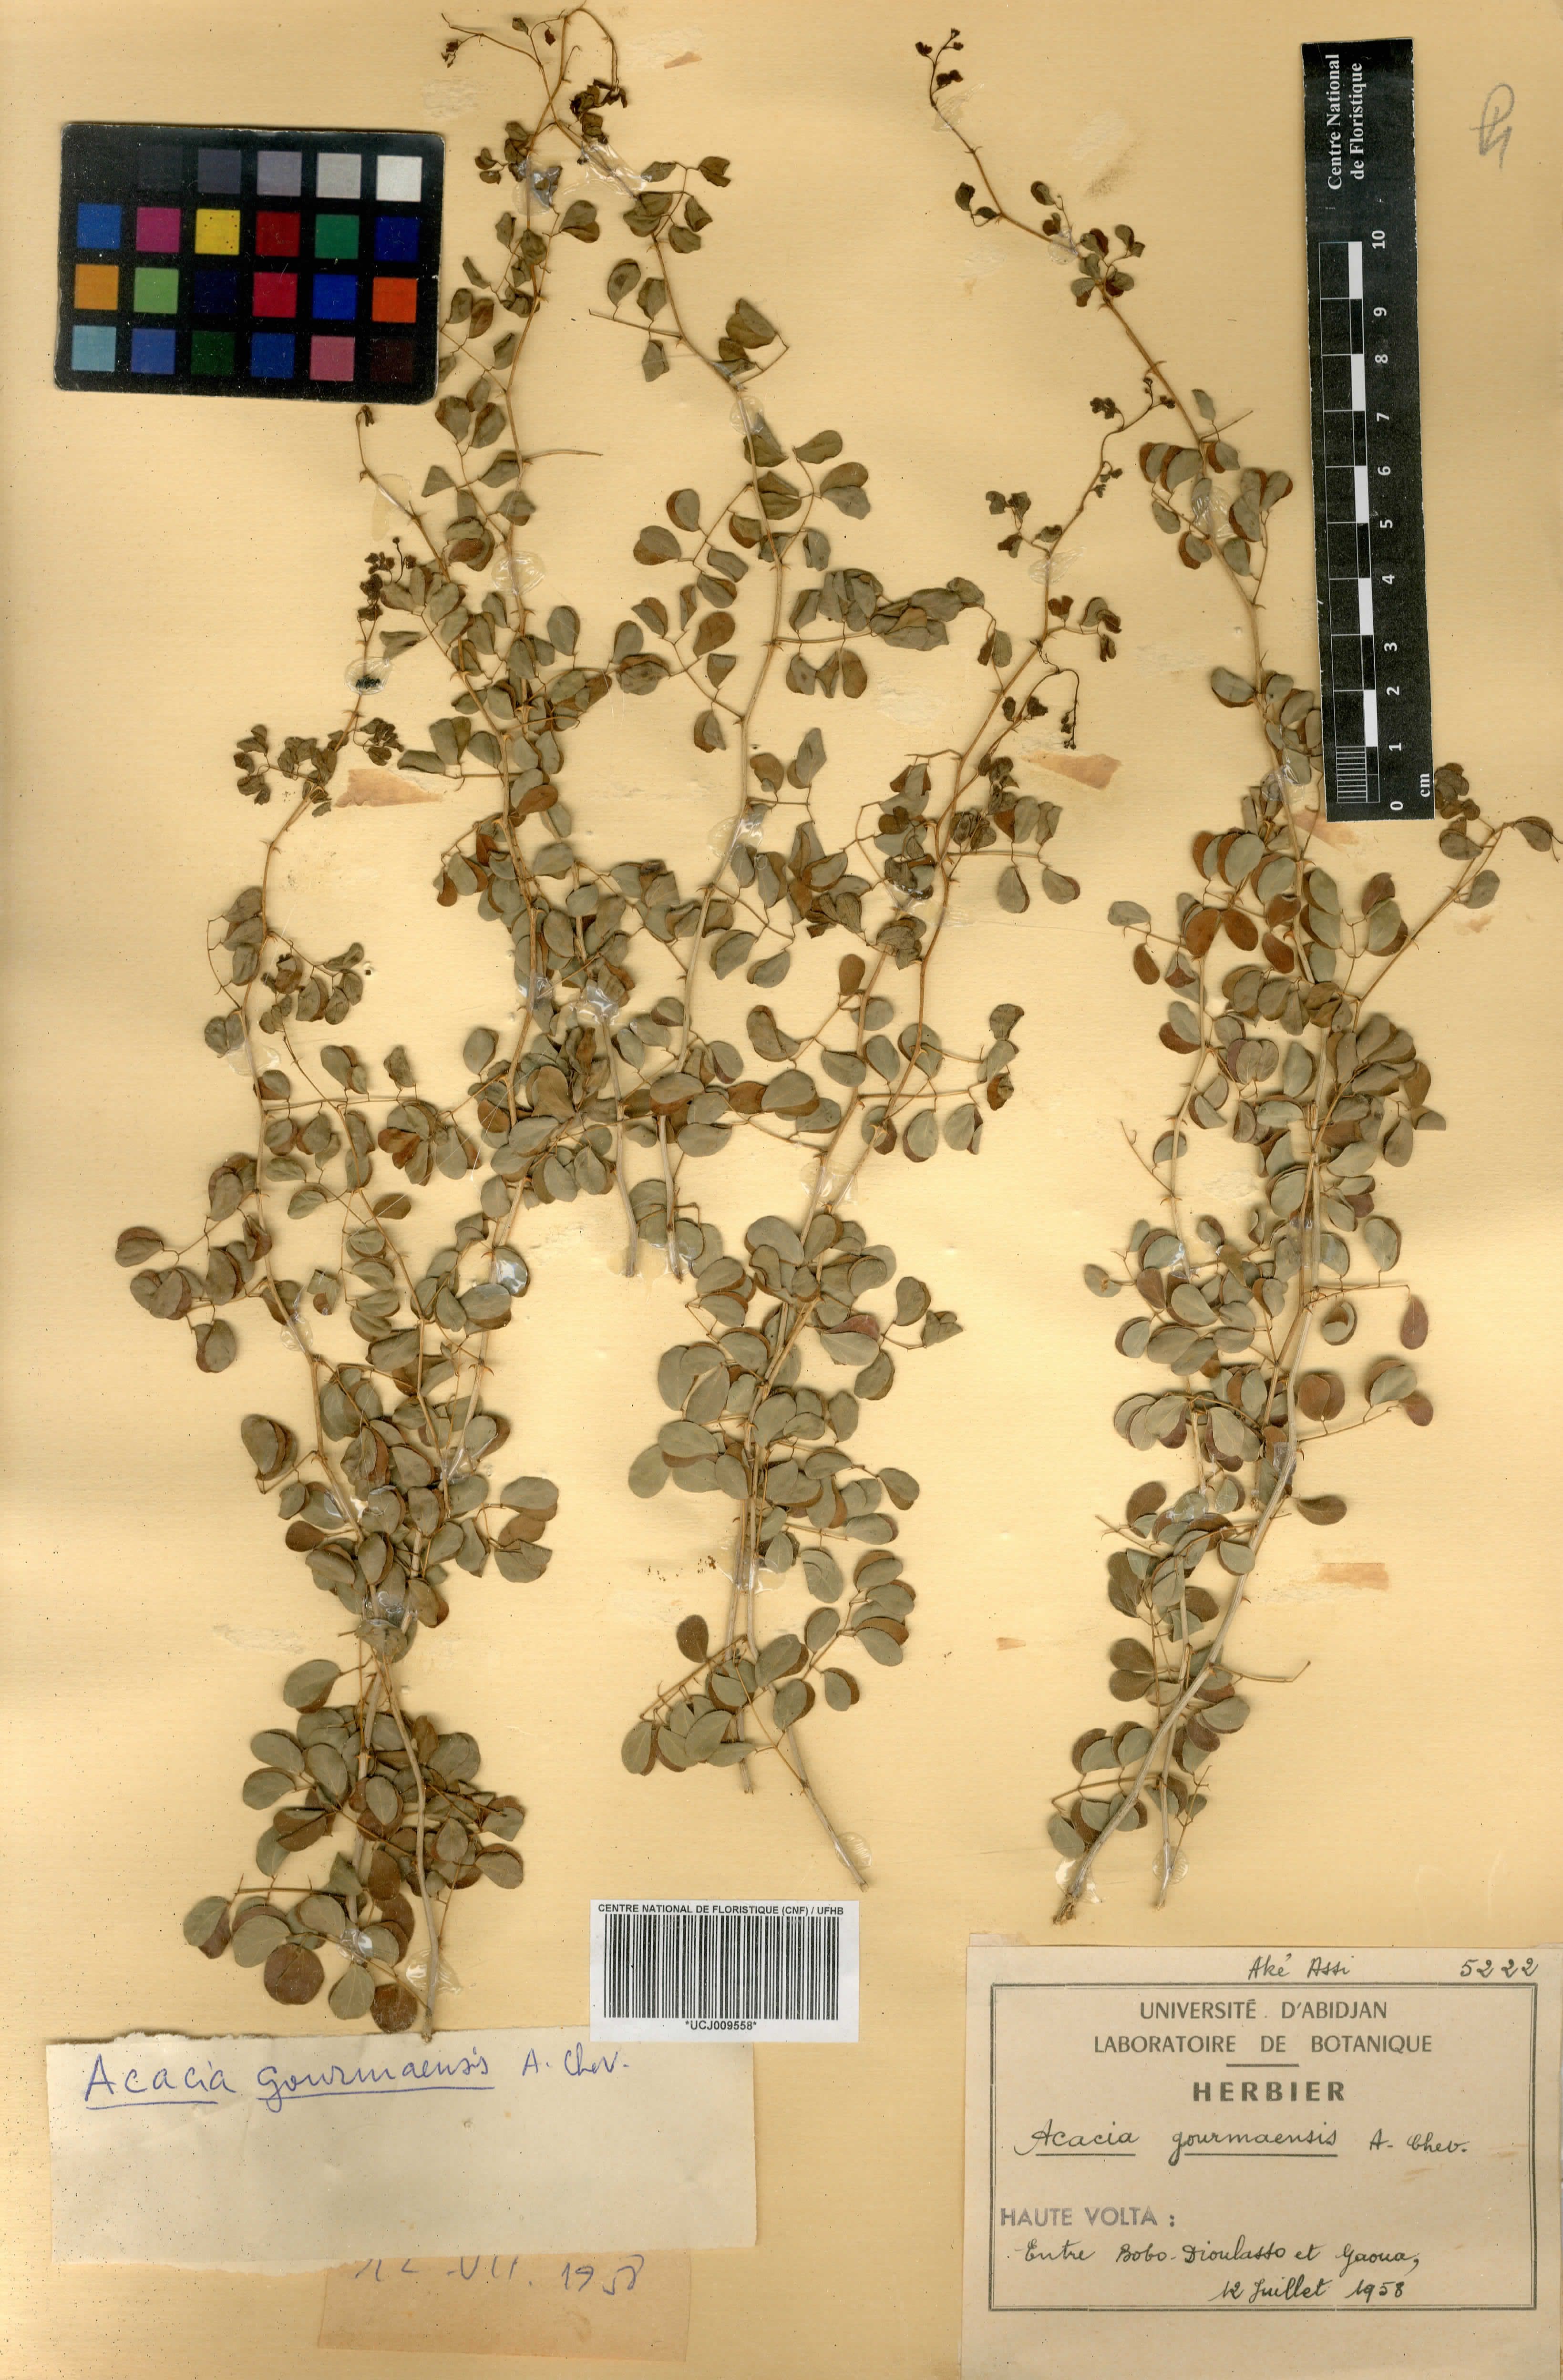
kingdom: Plantae
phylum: Tracheophyta
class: Magnoliopsida
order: Fabales
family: Fabaceae
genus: Senegalia
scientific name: Senegalia gourmaensis
